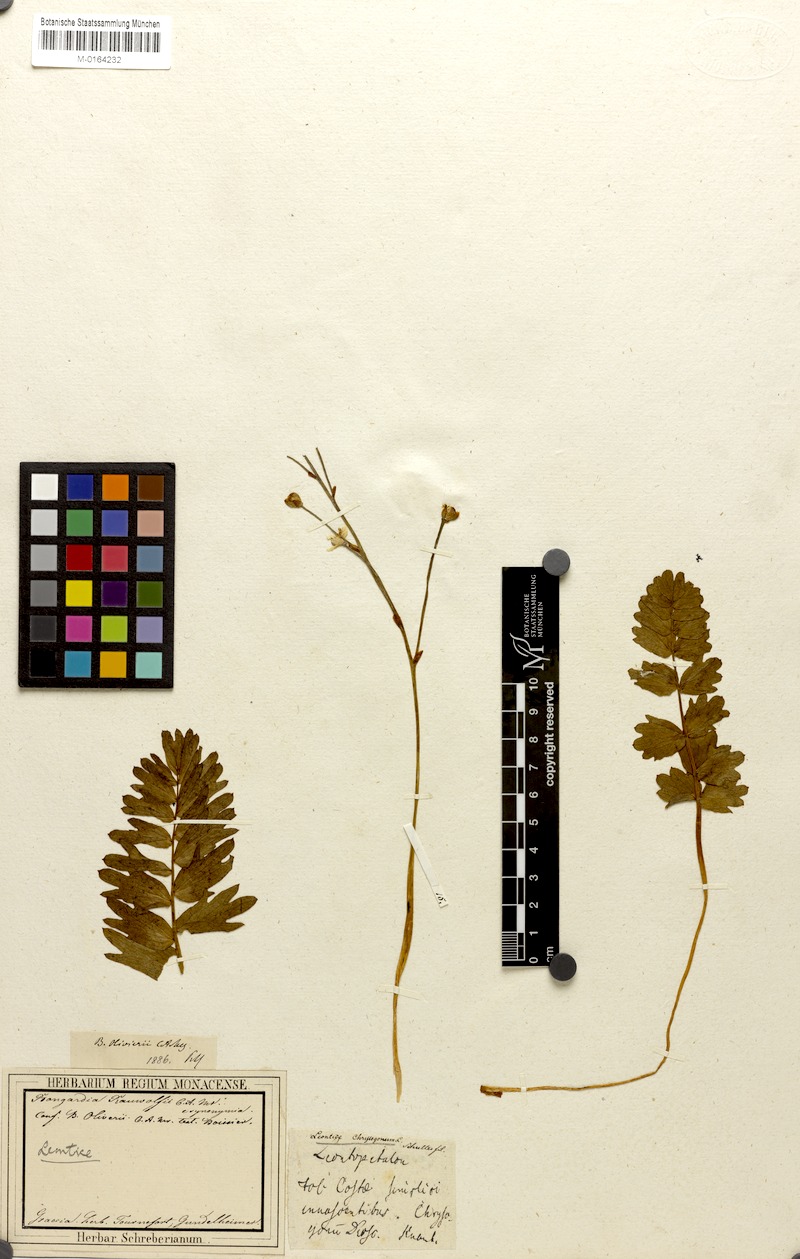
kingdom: Plantae
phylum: Tracheophyta
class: Magnoliopsida
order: Ranunculales
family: Berberidaceae
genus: Bongardia
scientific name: Bongardia chrysogonum
